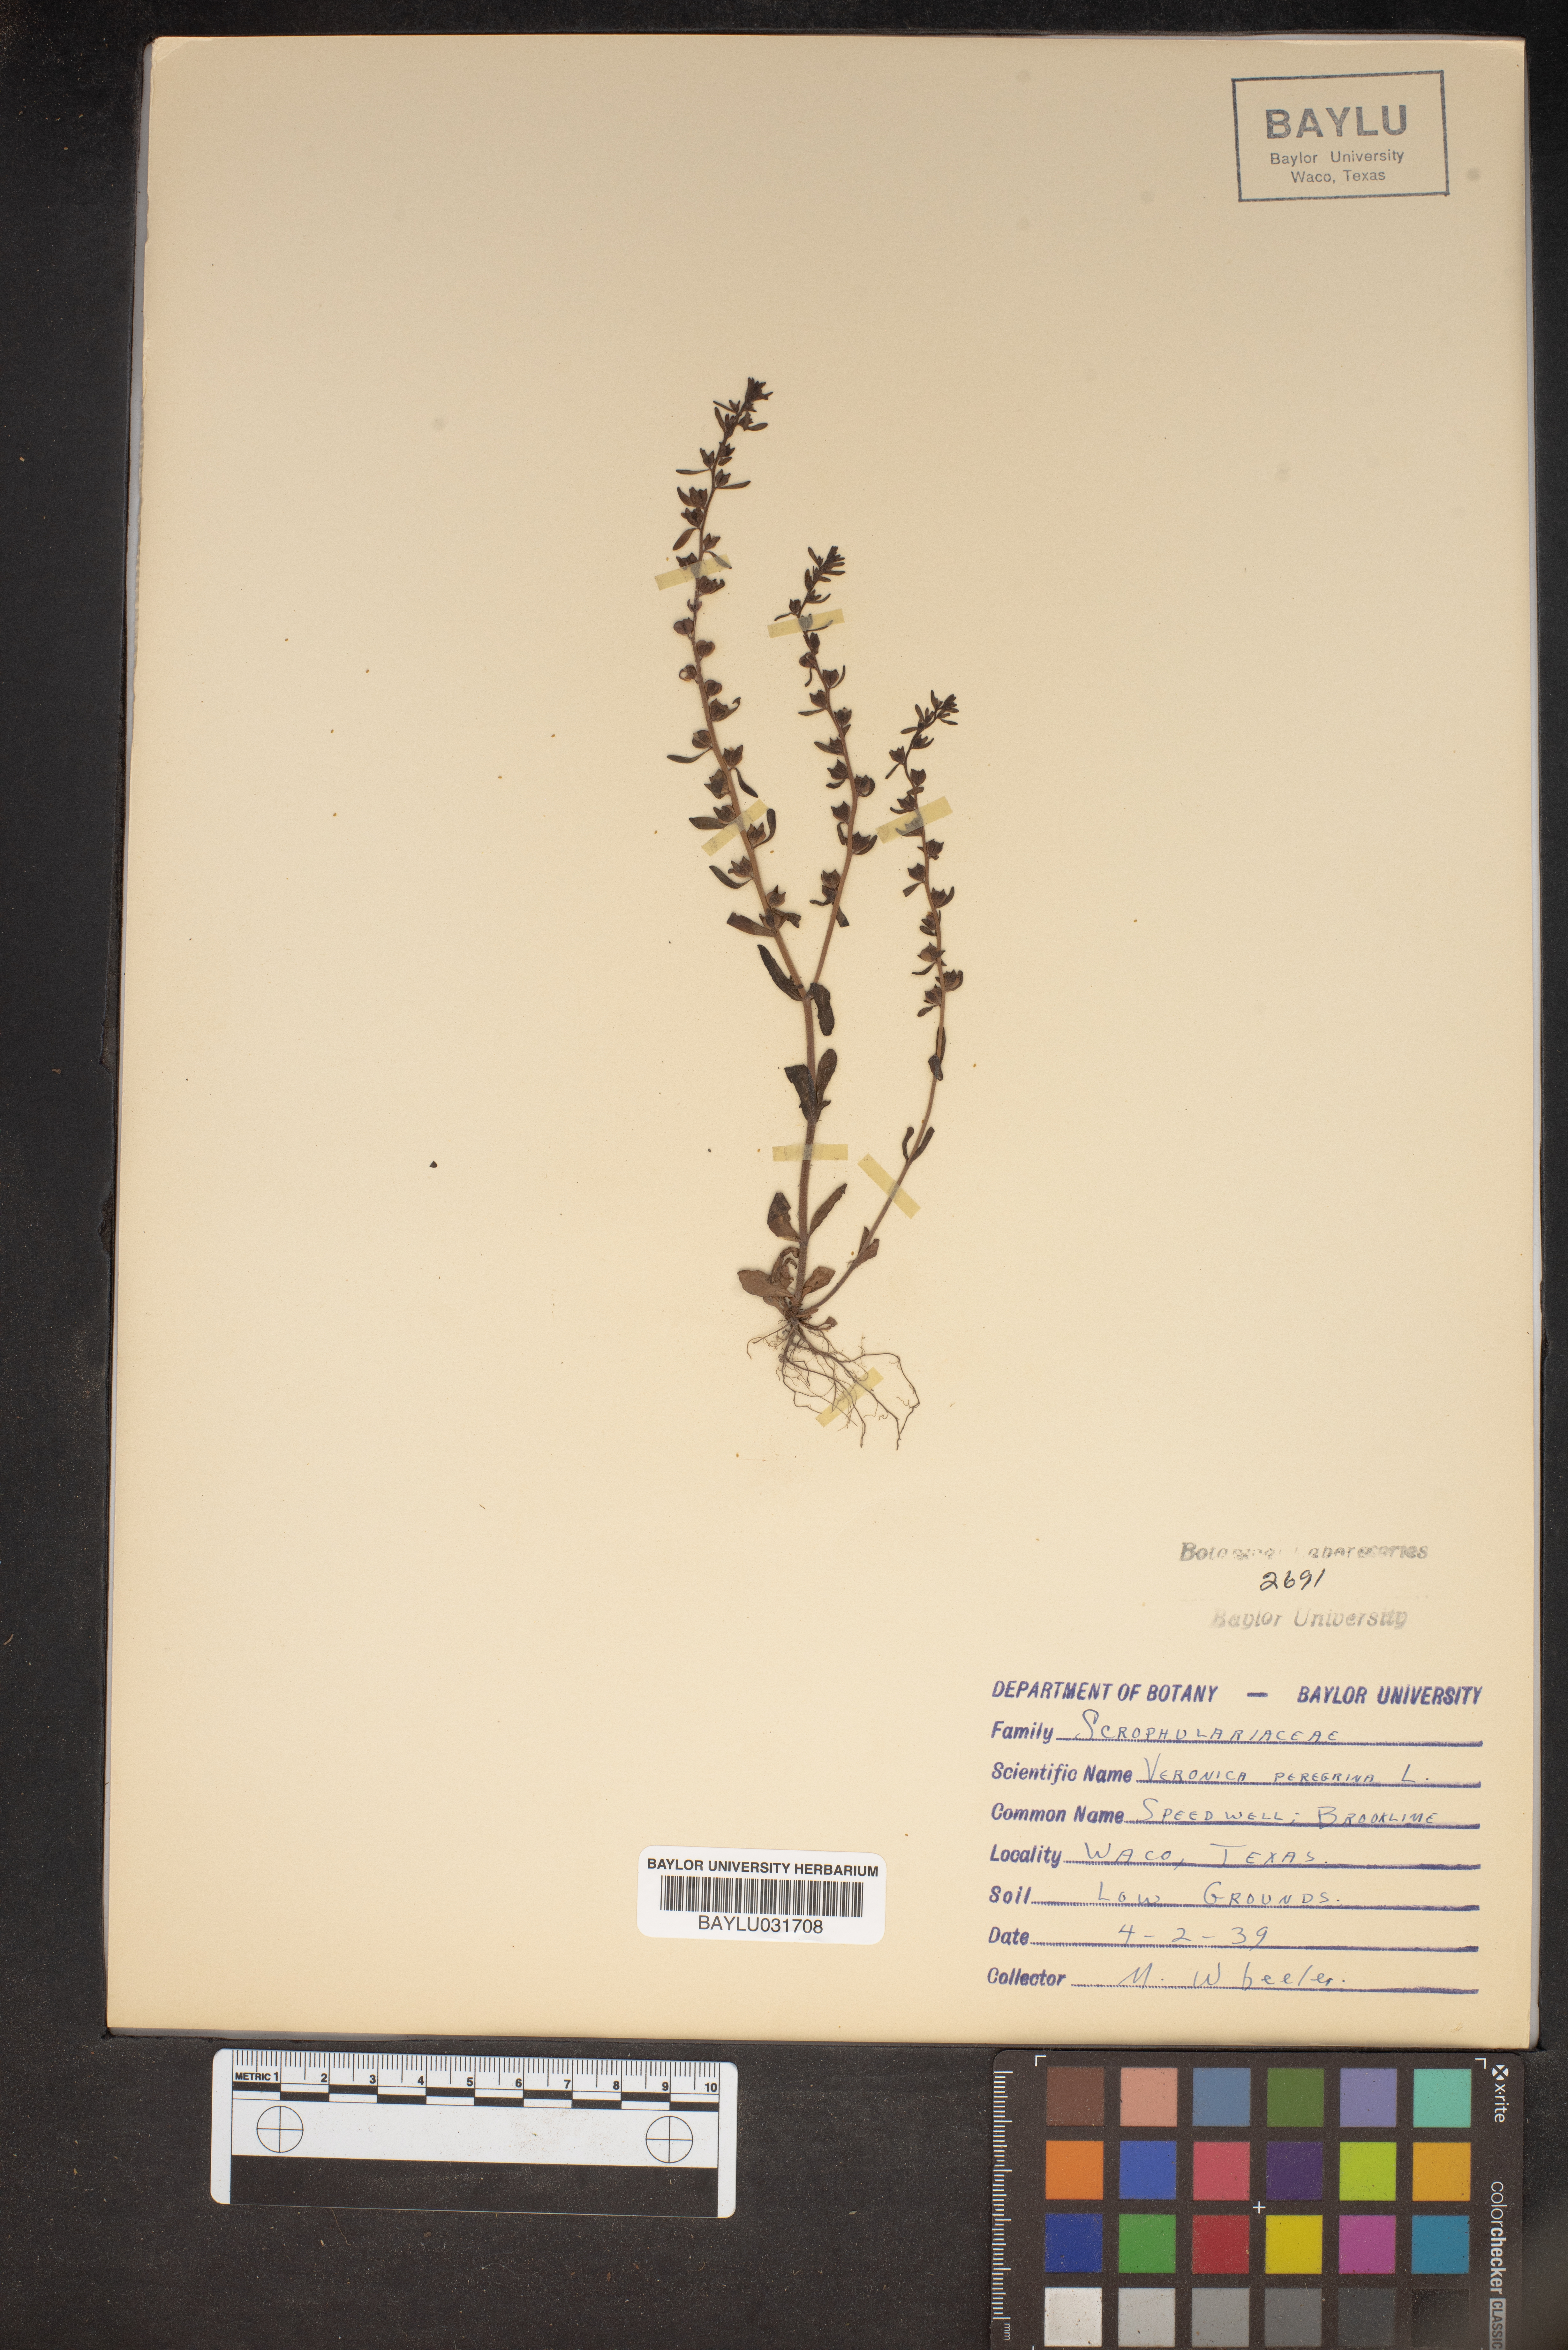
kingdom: Plantae
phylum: Tracheophyta
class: Magnoliopsida
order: Lamiales
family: Plantaginaceae
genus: Veronica
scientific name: Veronica peregrina
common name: Neckweed
